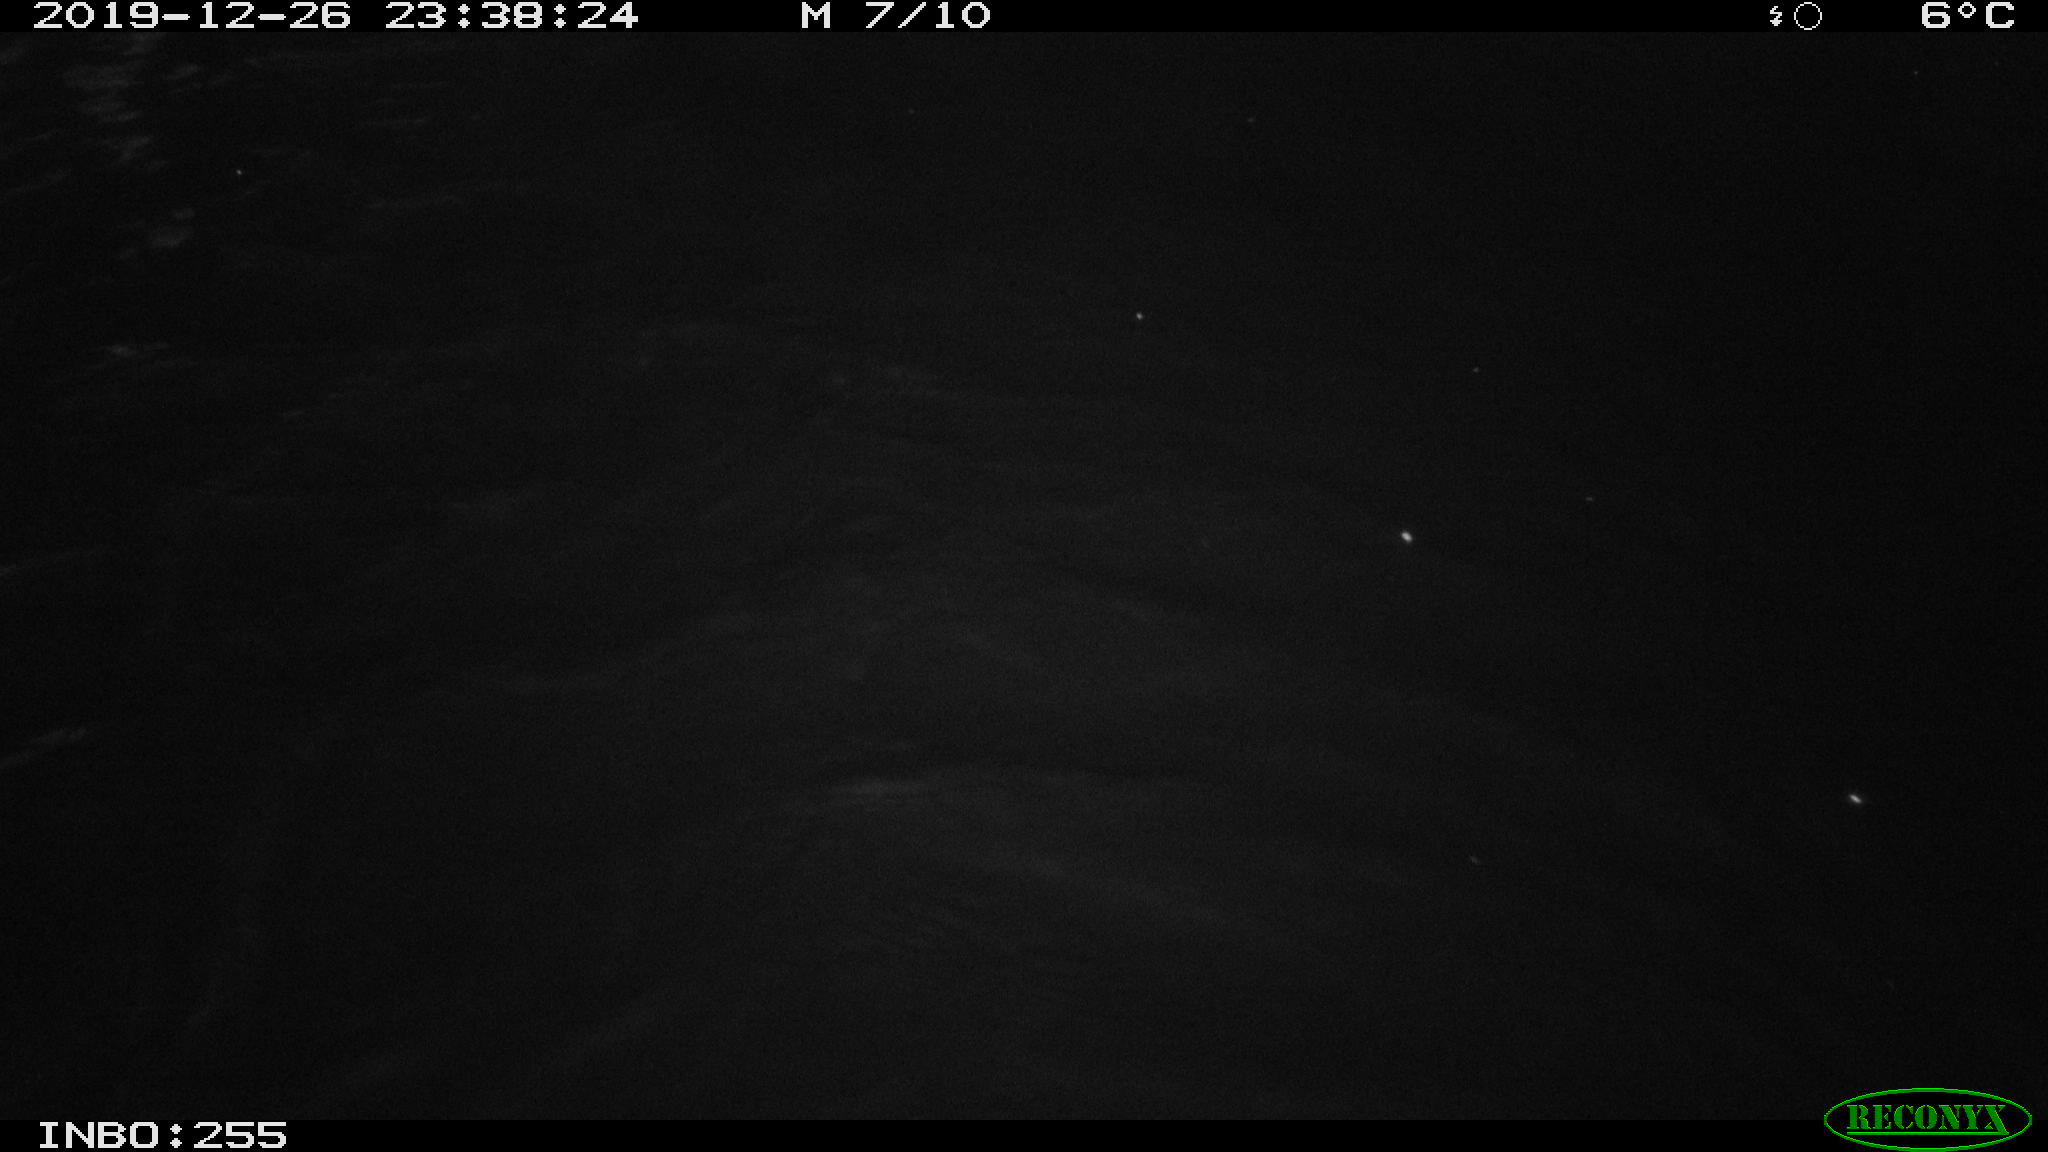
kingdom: Animalia
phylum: Chordata
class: Mammalia
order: Rodentia
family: Cricetidae
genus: Ondatra
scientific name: Ondatra zibethicus
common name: Muskrat
